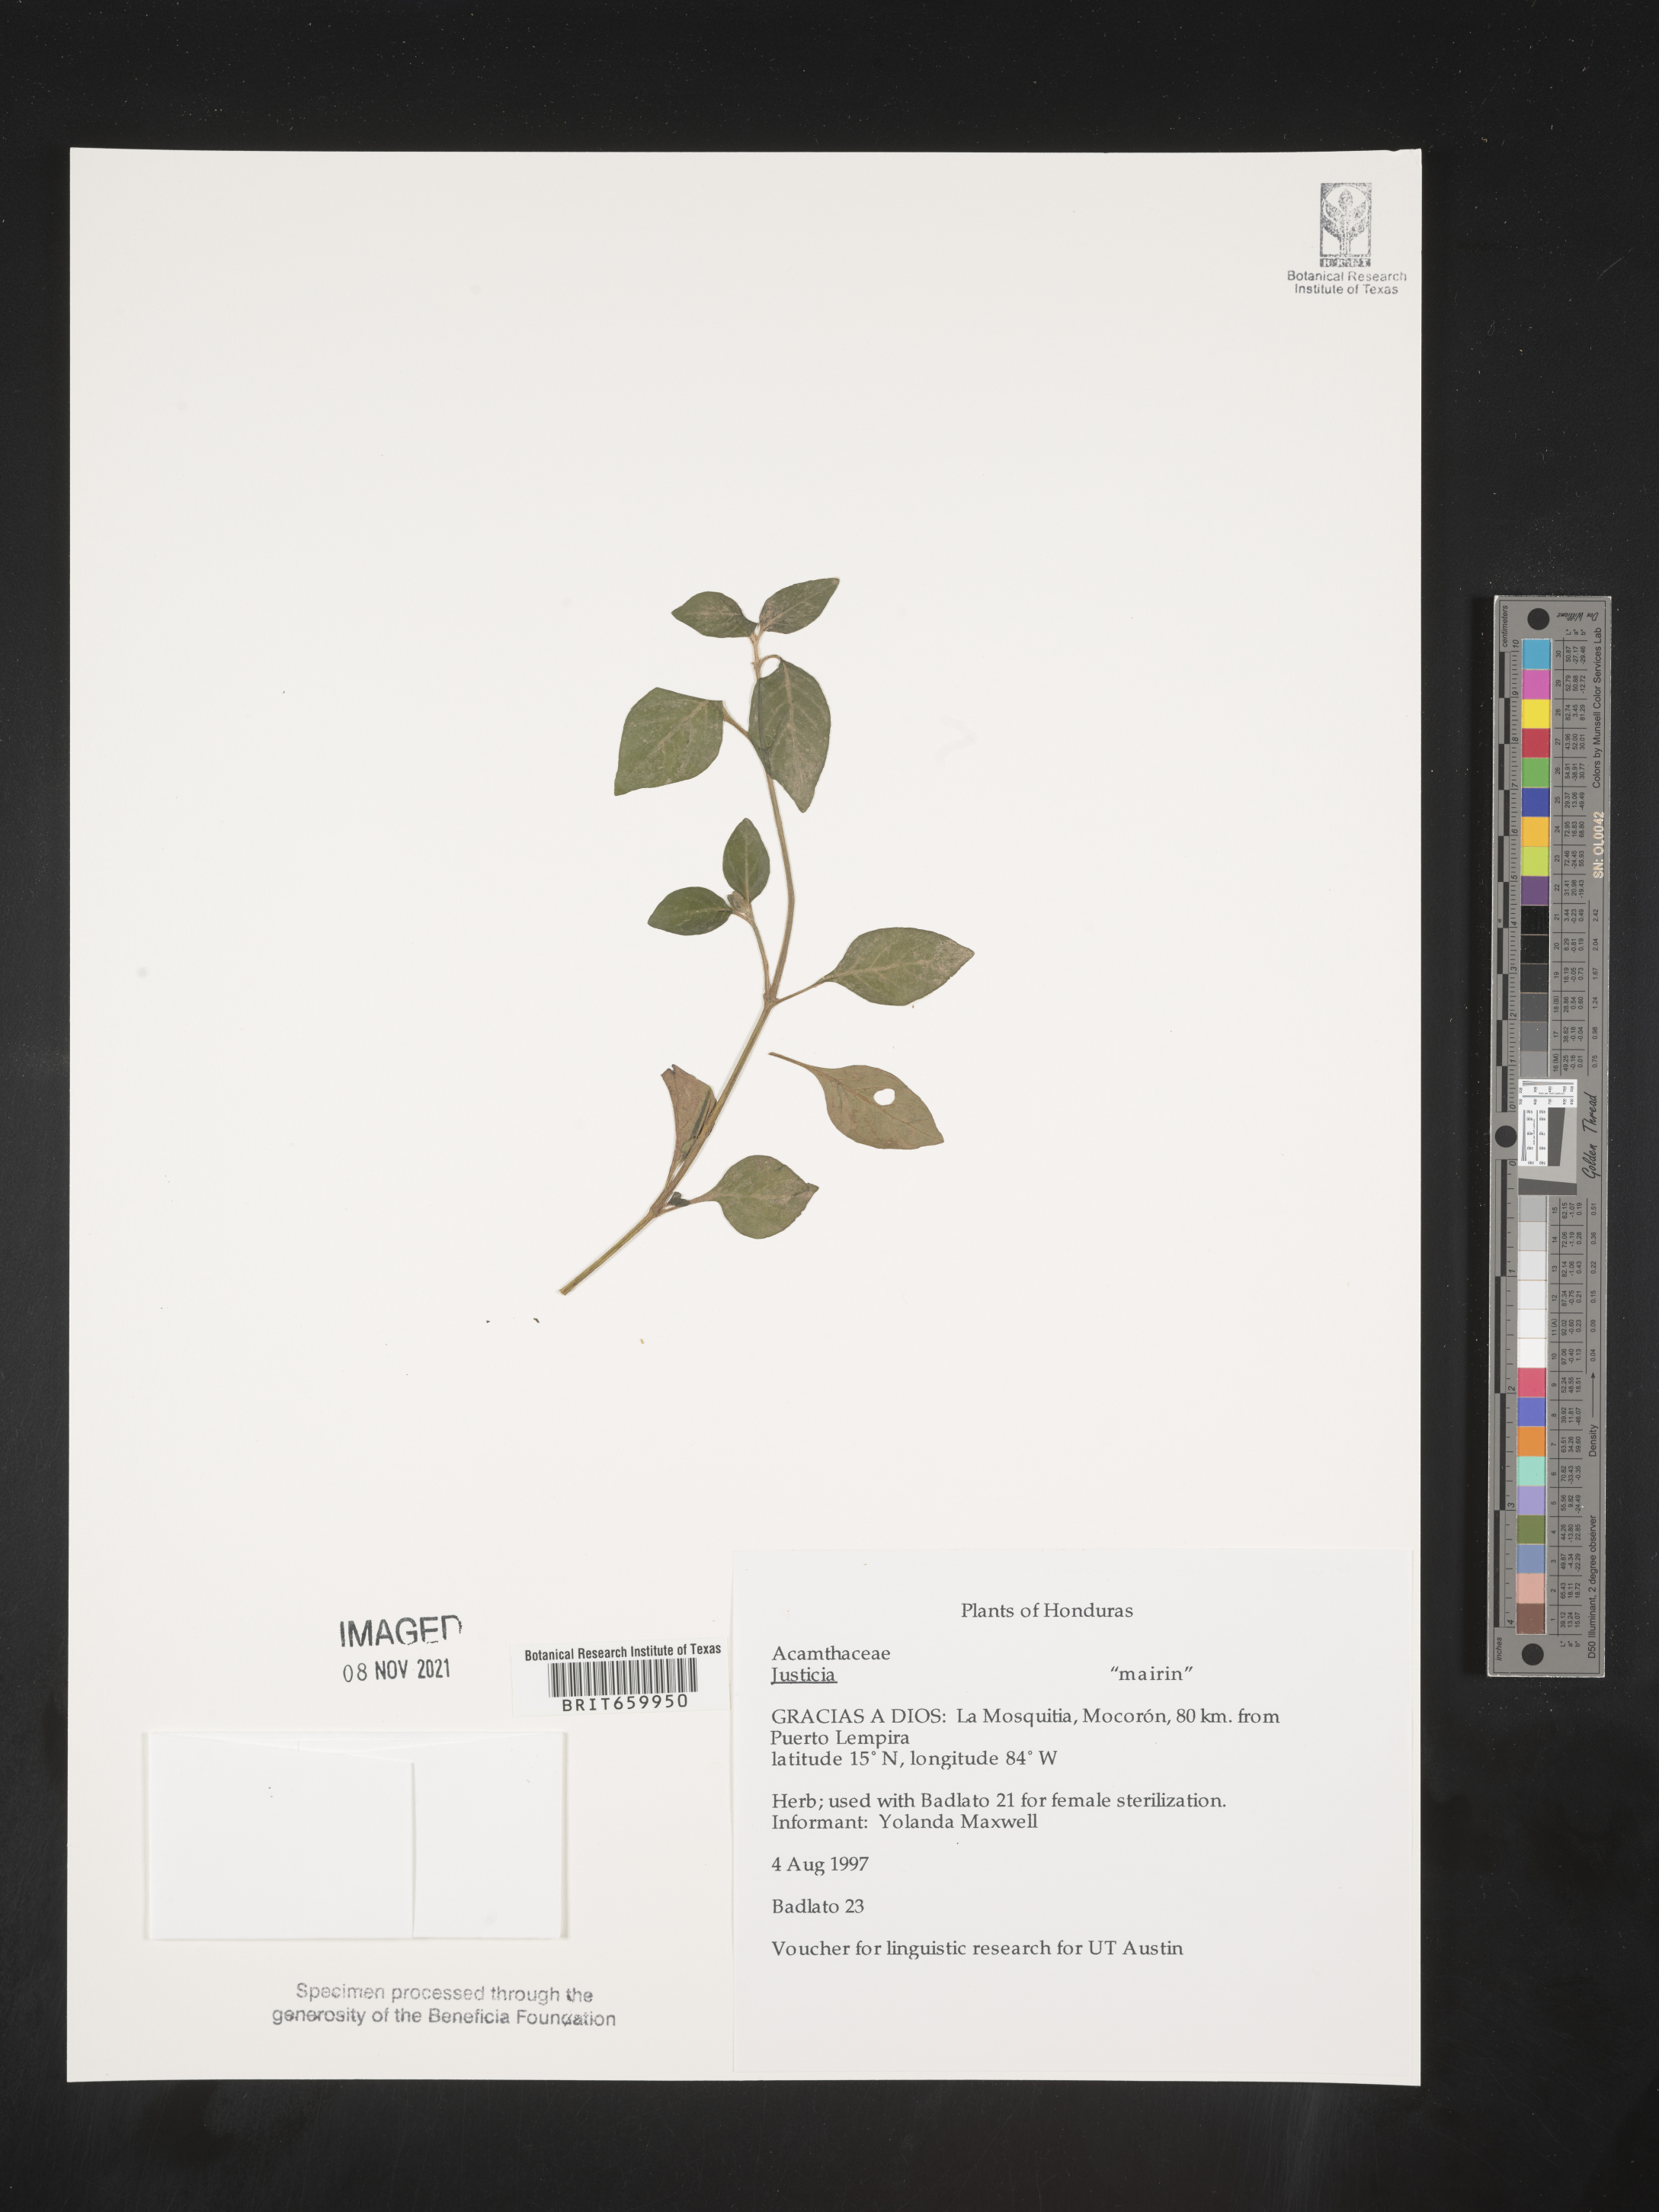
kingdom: Plantae
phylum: Tracheophyta
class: Magnoliopsida
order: Lamiales
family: Acanthaceae
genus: Justicia
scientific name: Justicia
